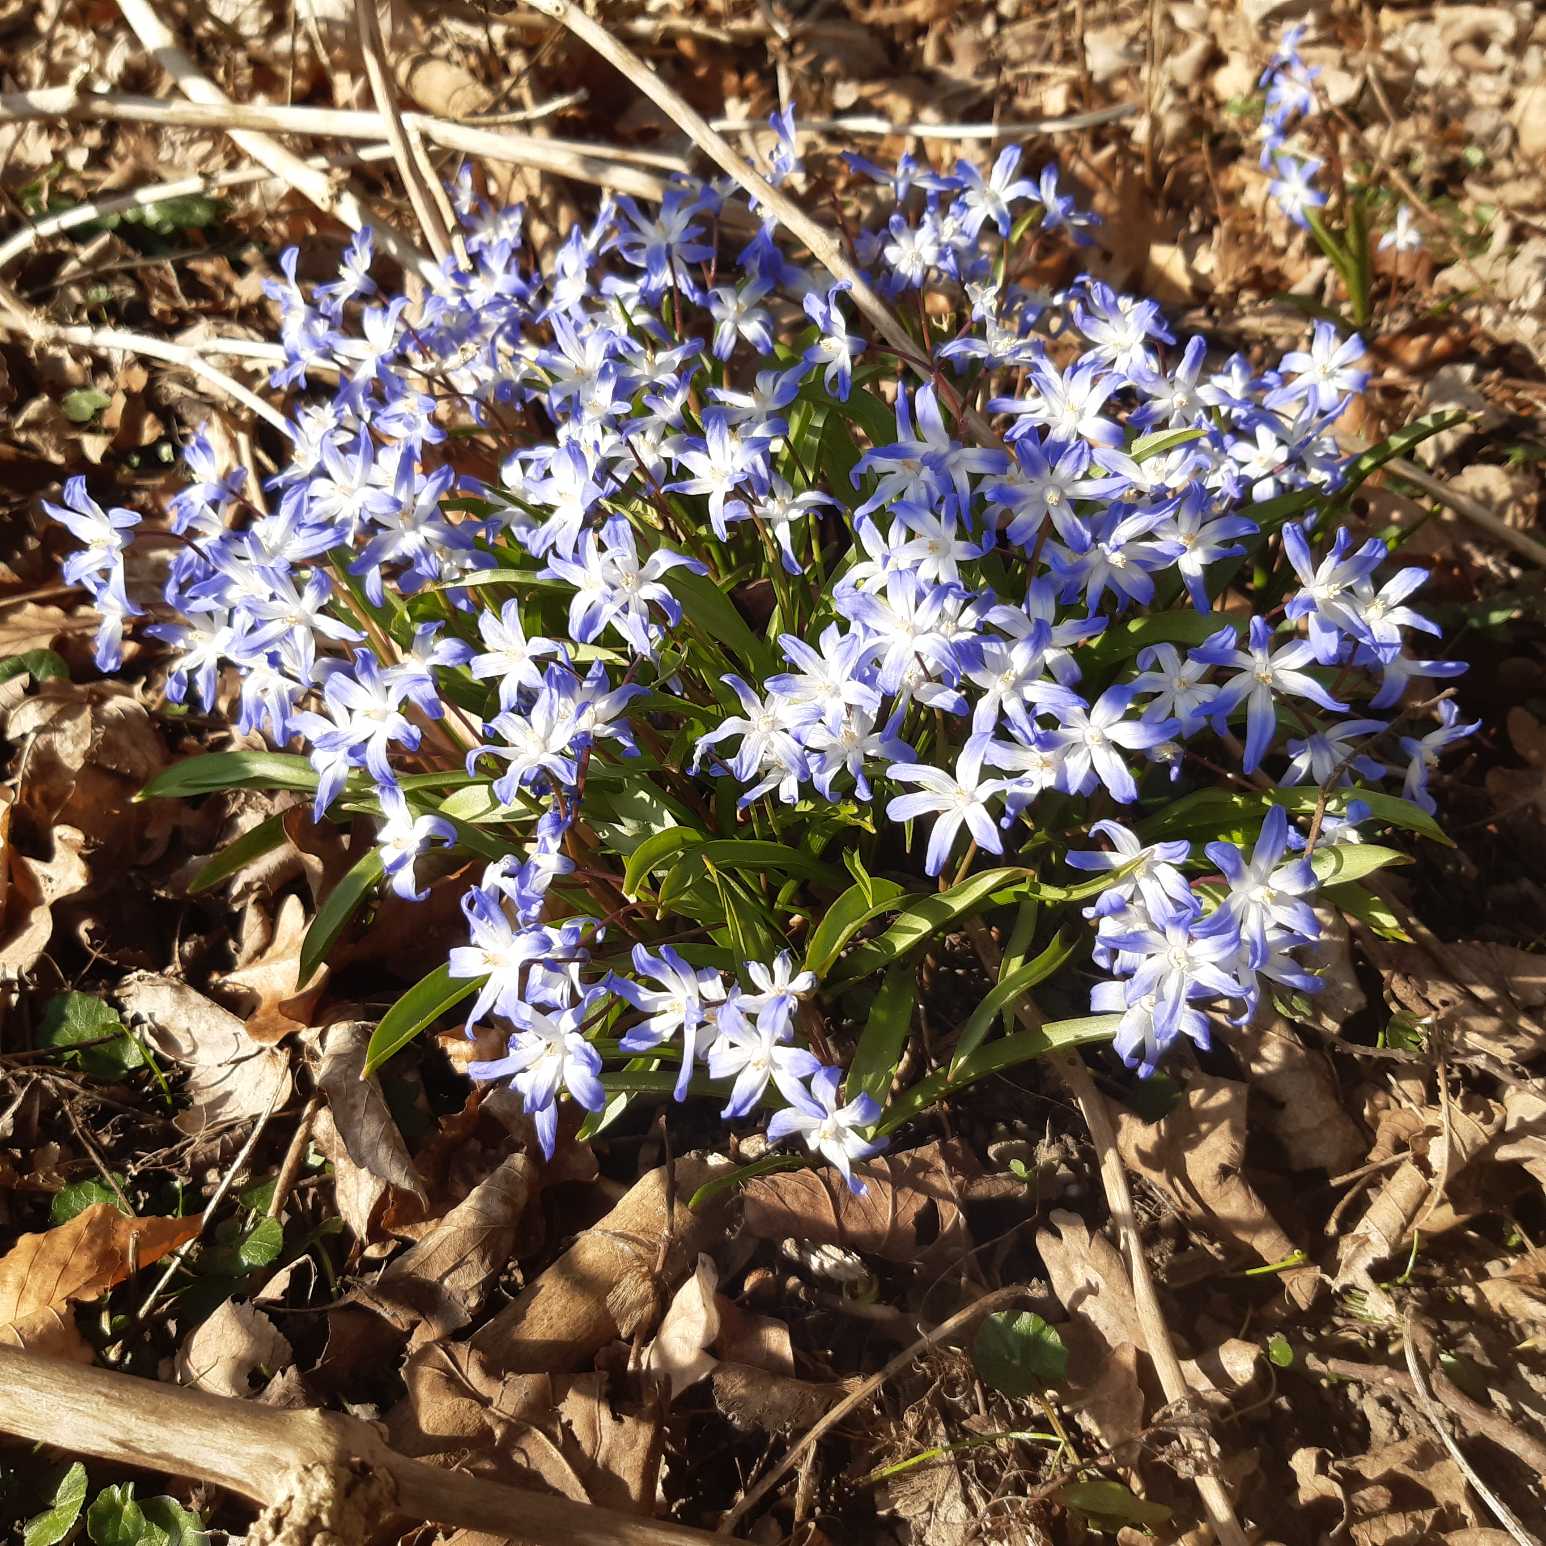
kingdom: Plantae
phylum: Tracheophyta
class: Liliopsida
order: Asparagales
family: Asparagaceae
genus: Scilla
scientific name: Scilla forbesii
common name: Almindelig snepryd
